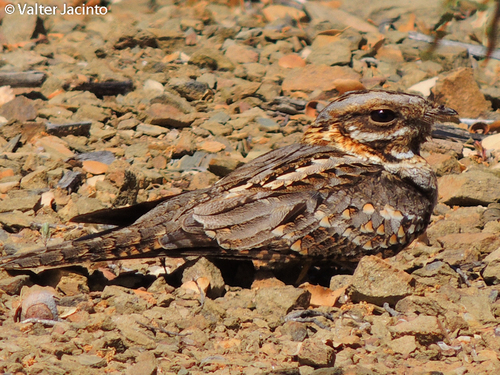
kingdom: Animalia
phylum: Chordata
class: Aves
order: Caprimulgiformes
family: Caprimulgidae
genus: Caprimulgus
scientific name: Caprimulgus ruficollis
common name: Red-necked nightjar
